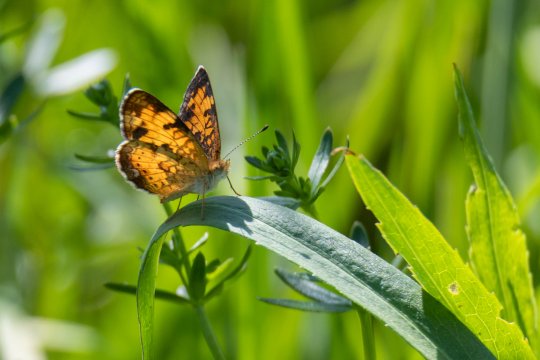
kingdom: Animalia
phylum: Arthropoda
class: Insecta
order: Lepidoptera
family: Nymphalidae
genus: Phyciodes
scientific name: Phyciodes tharos
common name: Pearl Crescent
